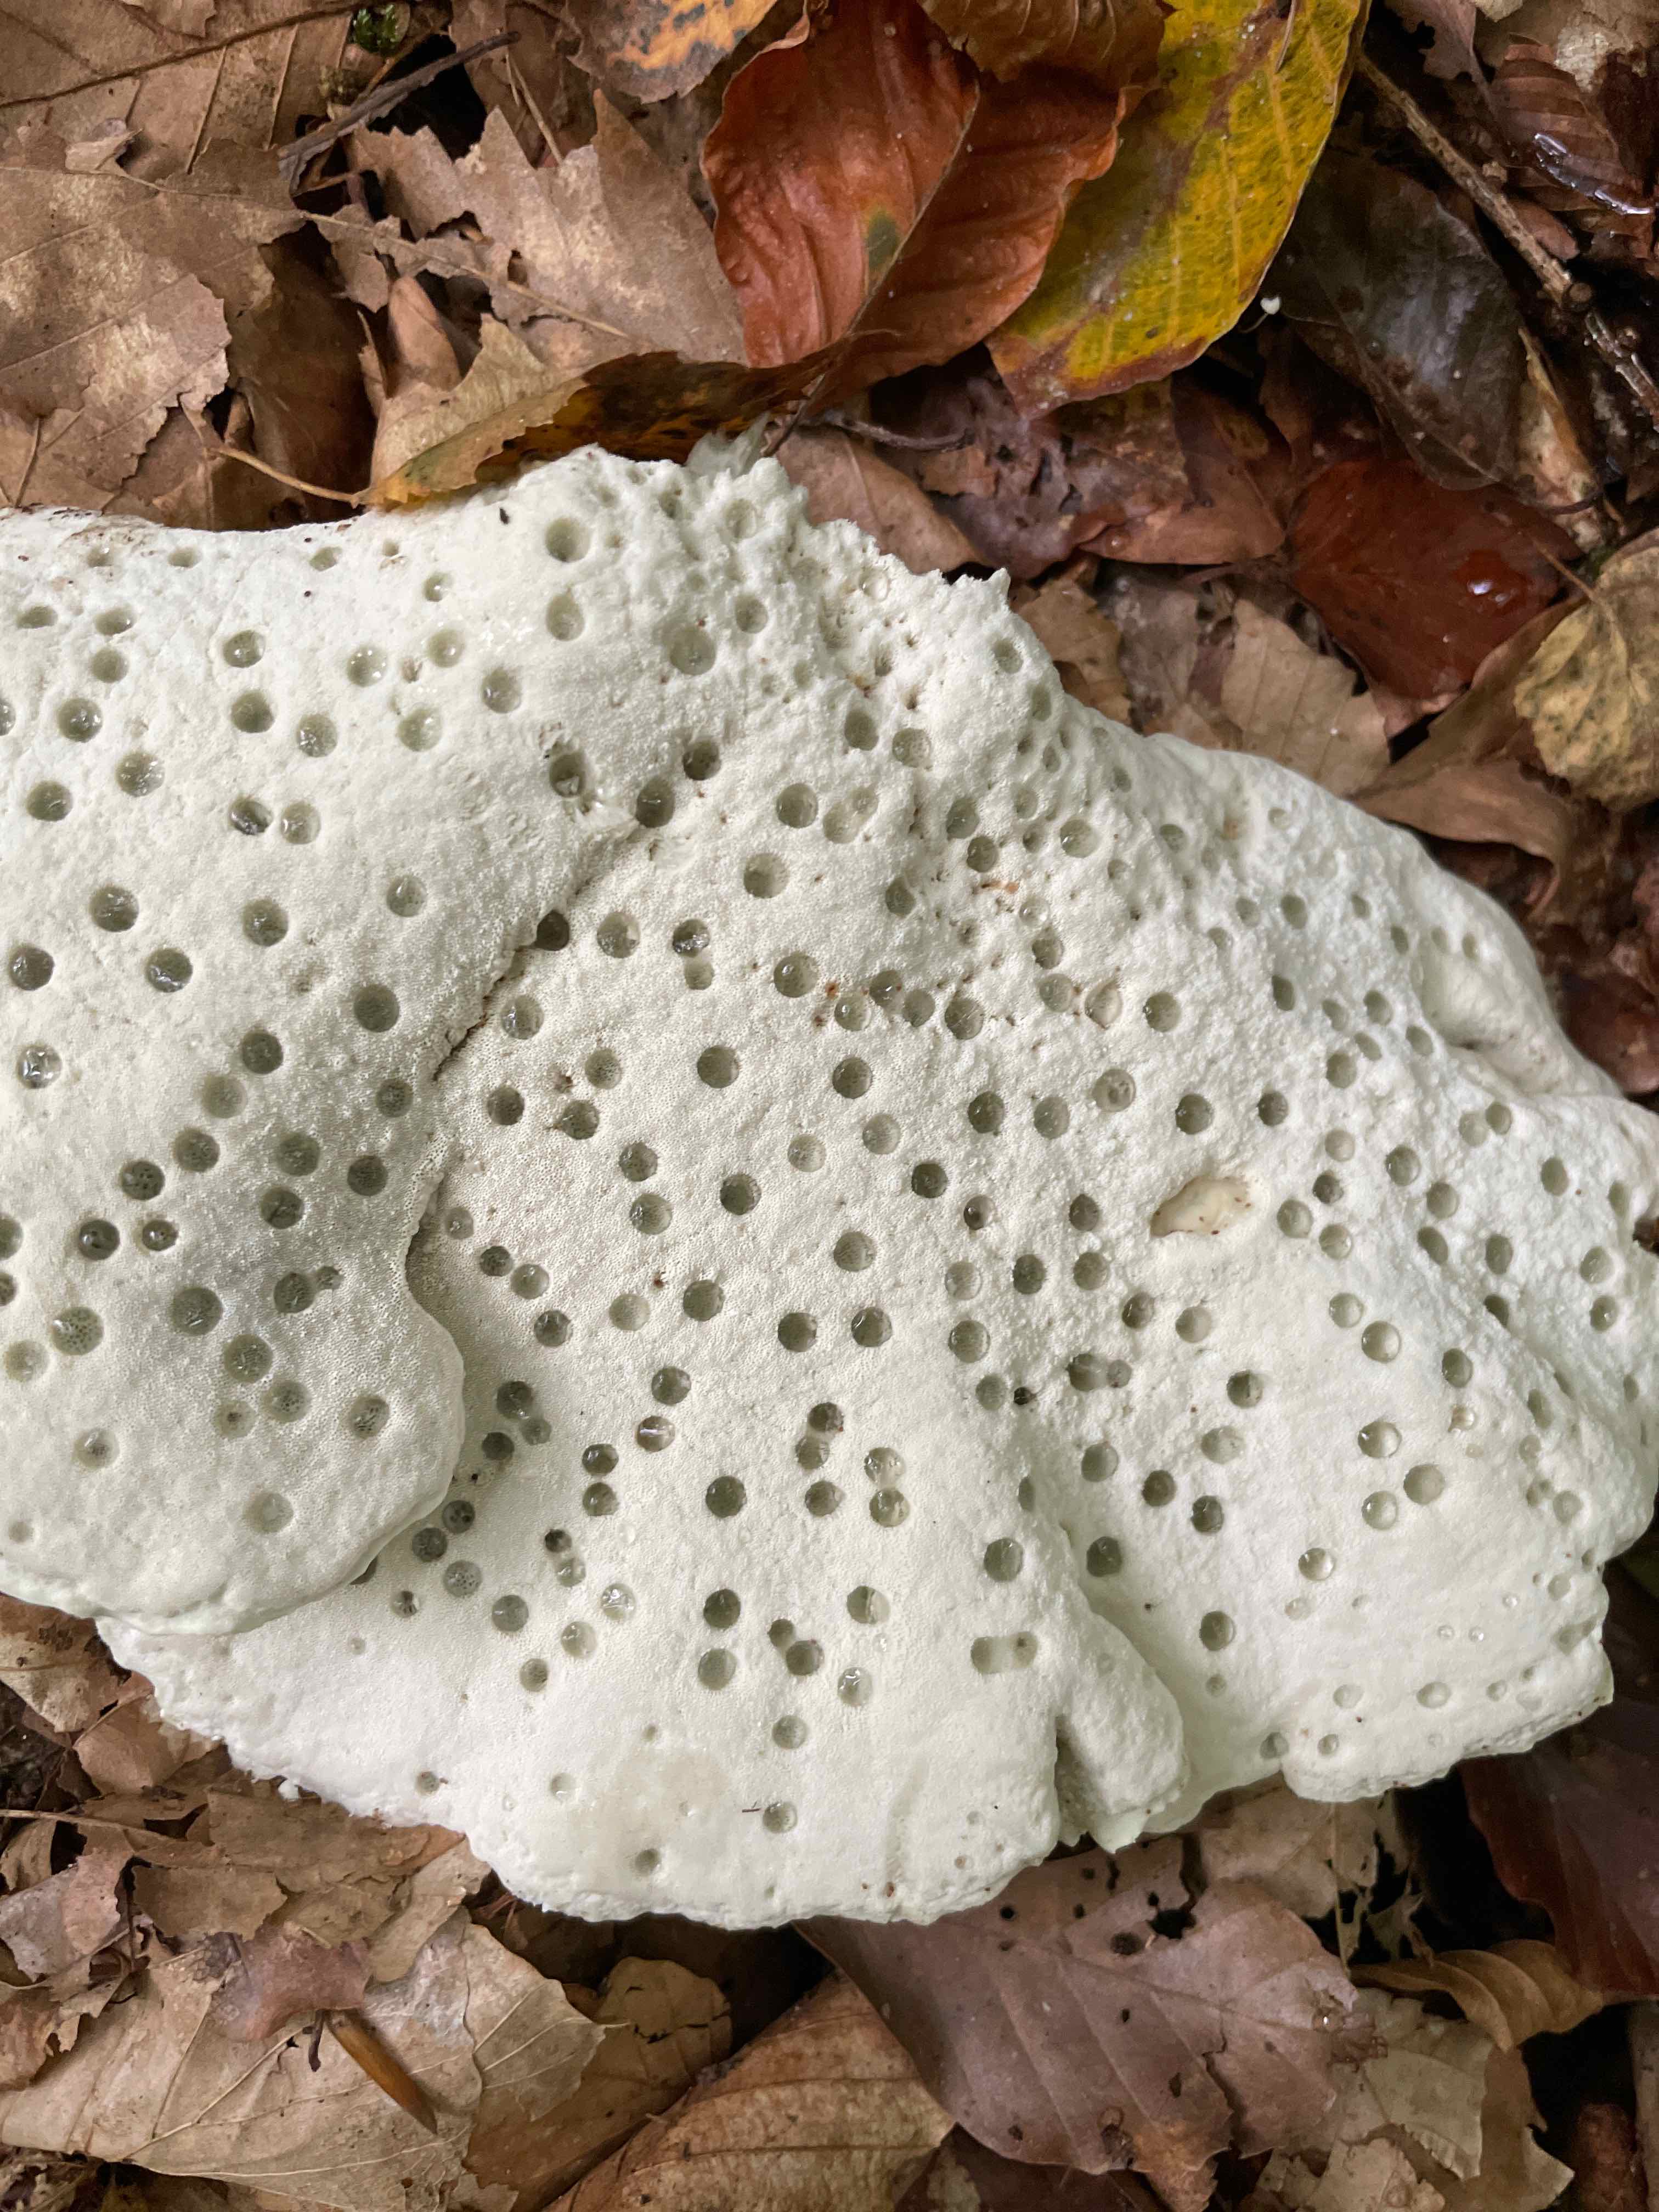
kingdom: Fungi
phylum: Basidiomycota
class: Agaricomycetes
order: Polyporales
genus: Calcipostia
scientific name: Calcipostia guttulata
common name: dråbe-kødporesvamp
